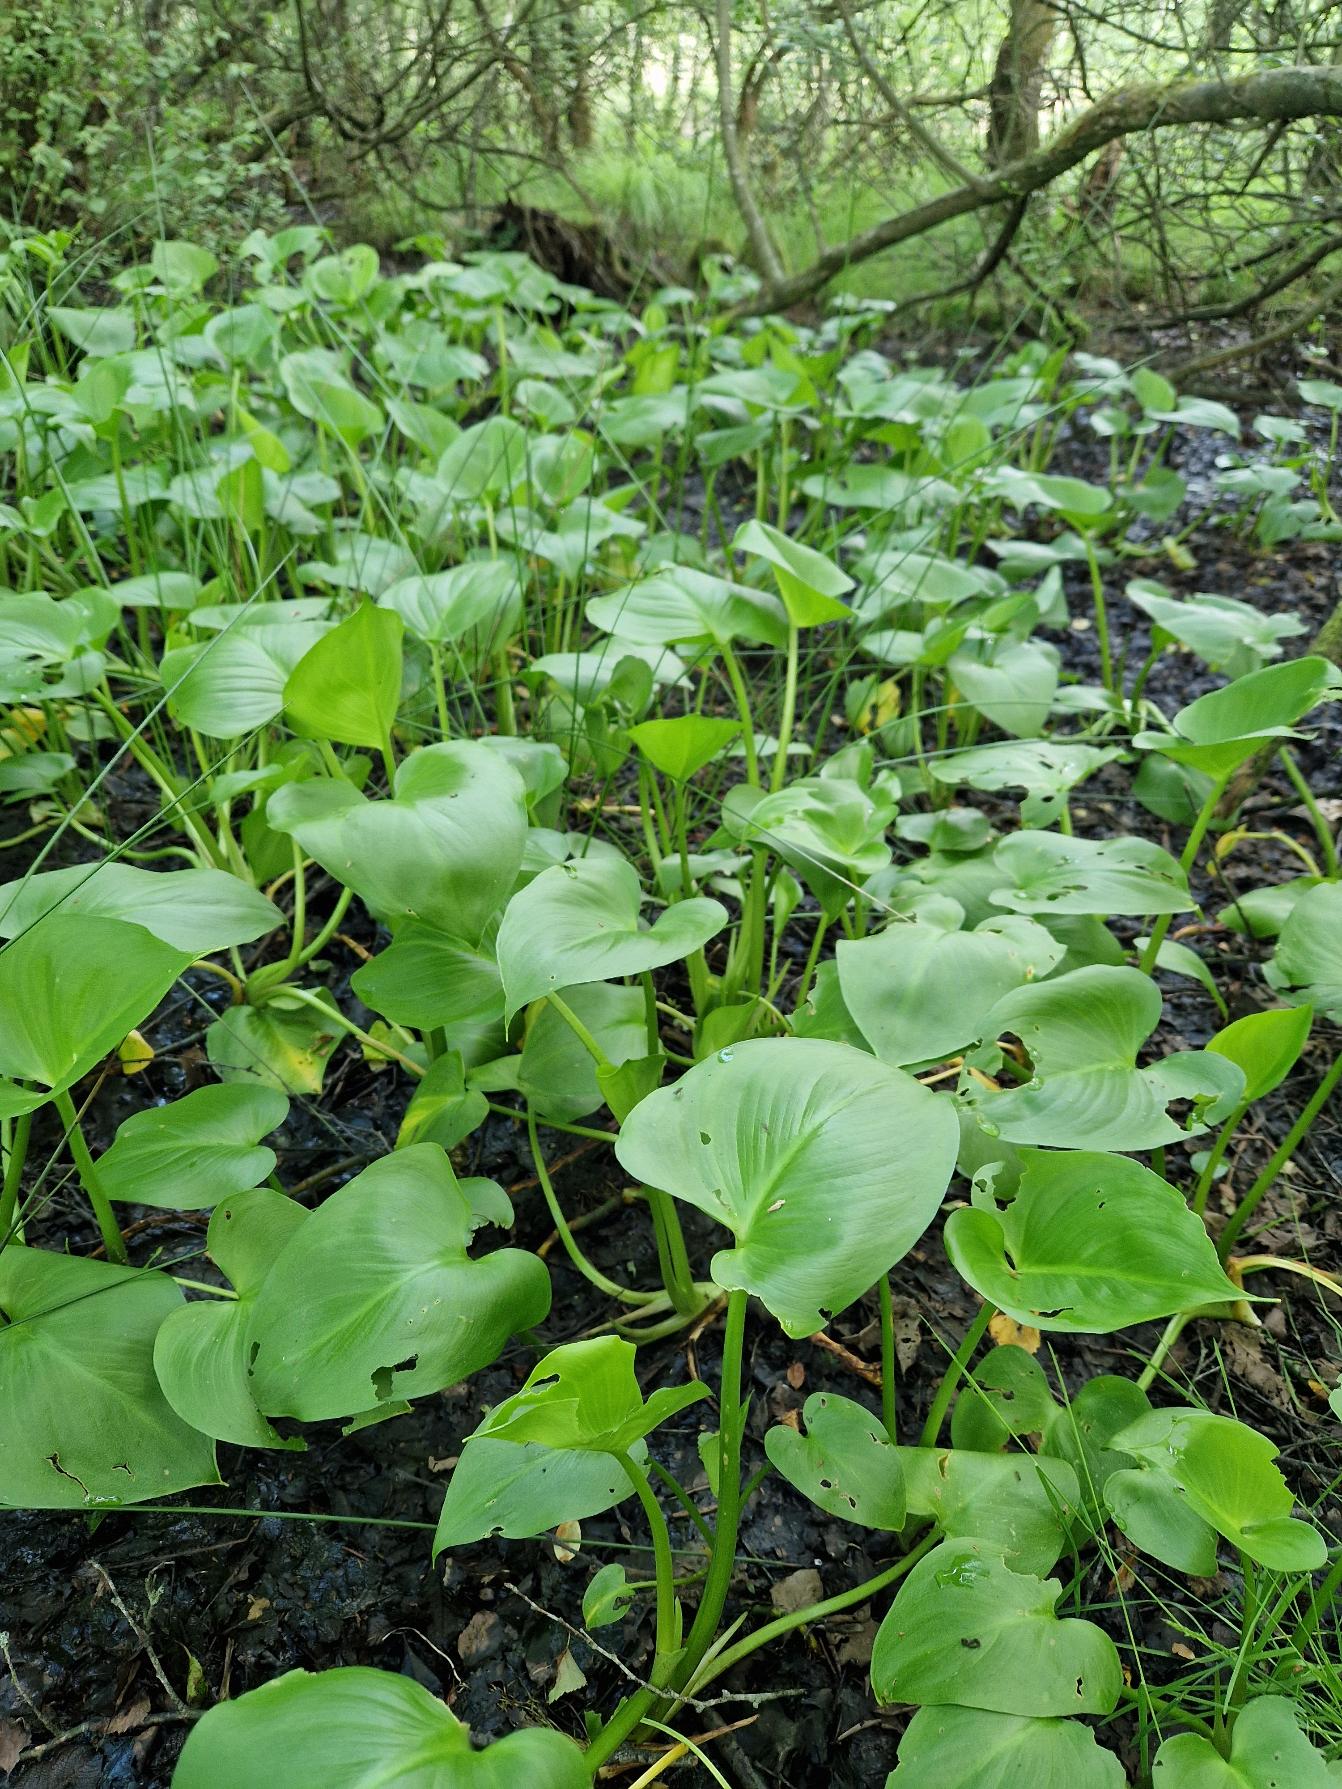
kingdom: Plantae
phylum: Tracheophyta
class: Liliopsida
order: Alismatales
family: Araceae
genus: Calla
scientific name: Calla palustris
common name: Kærmysse
